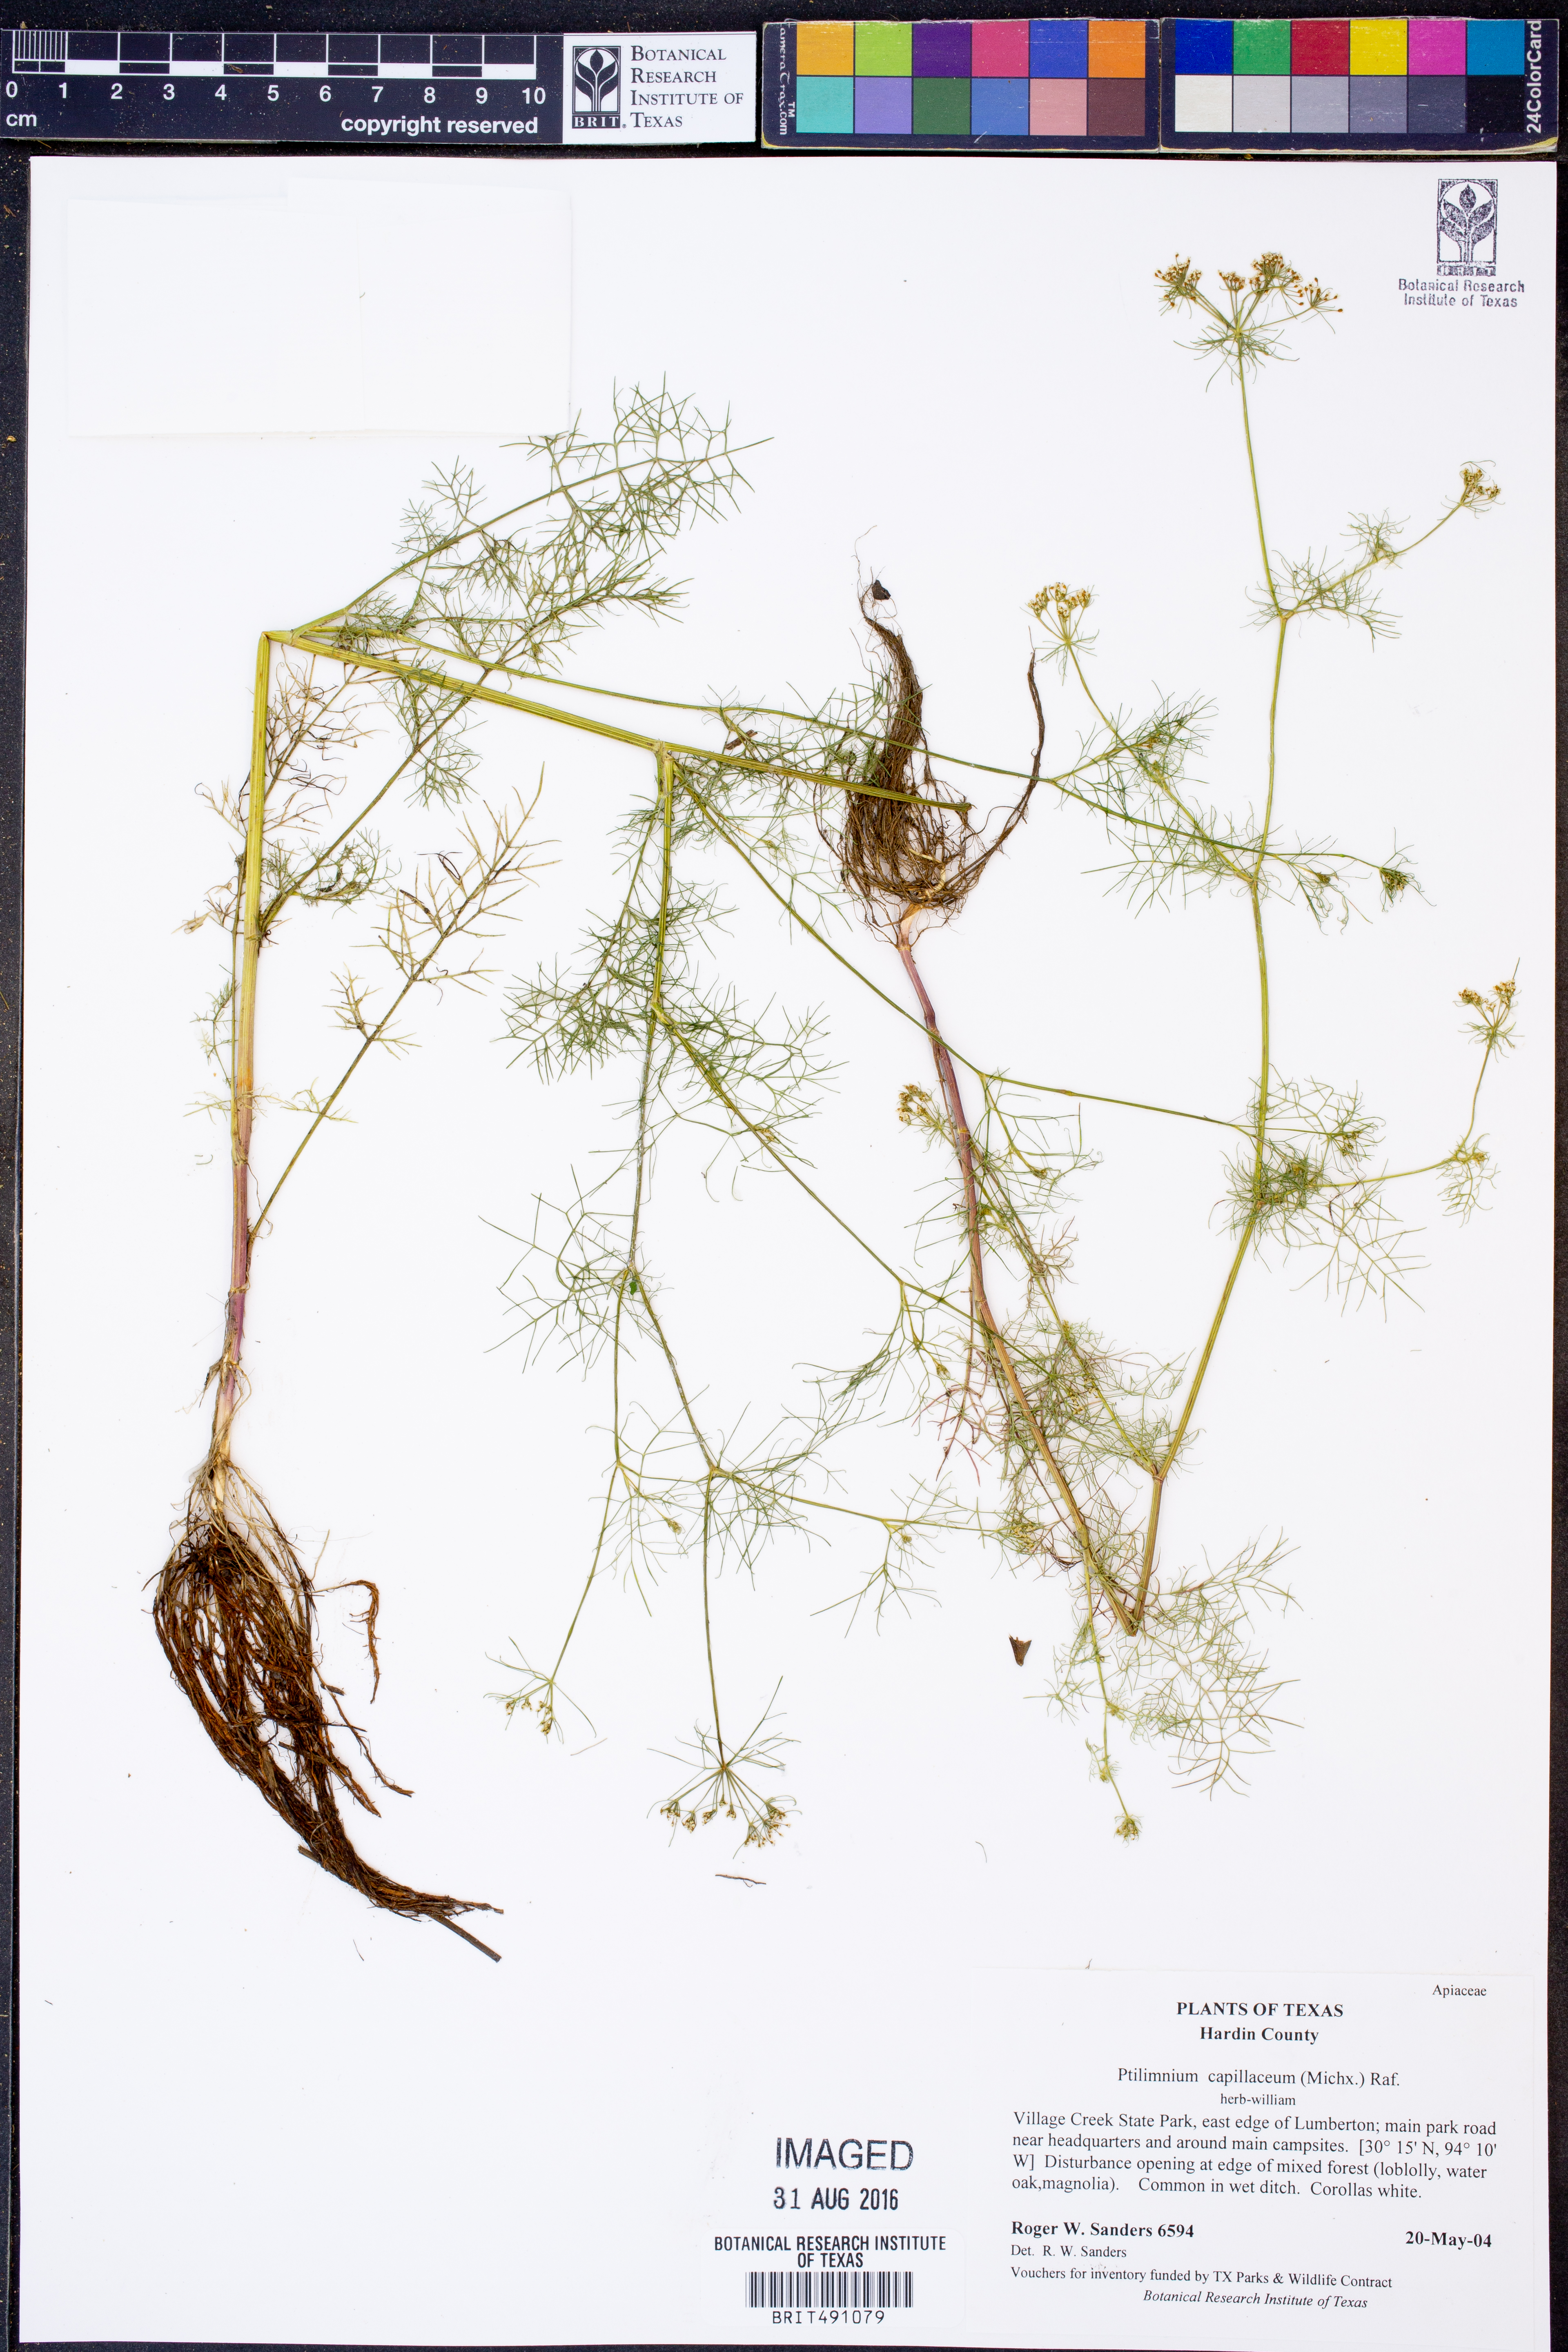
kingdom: Plantae
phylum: Tracheophyta
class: Magnoliopsida
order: Apiales
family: Apiaceae
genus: Ptilimnium
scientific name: Ptilimnium capillaceum
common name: Herbwilliam
